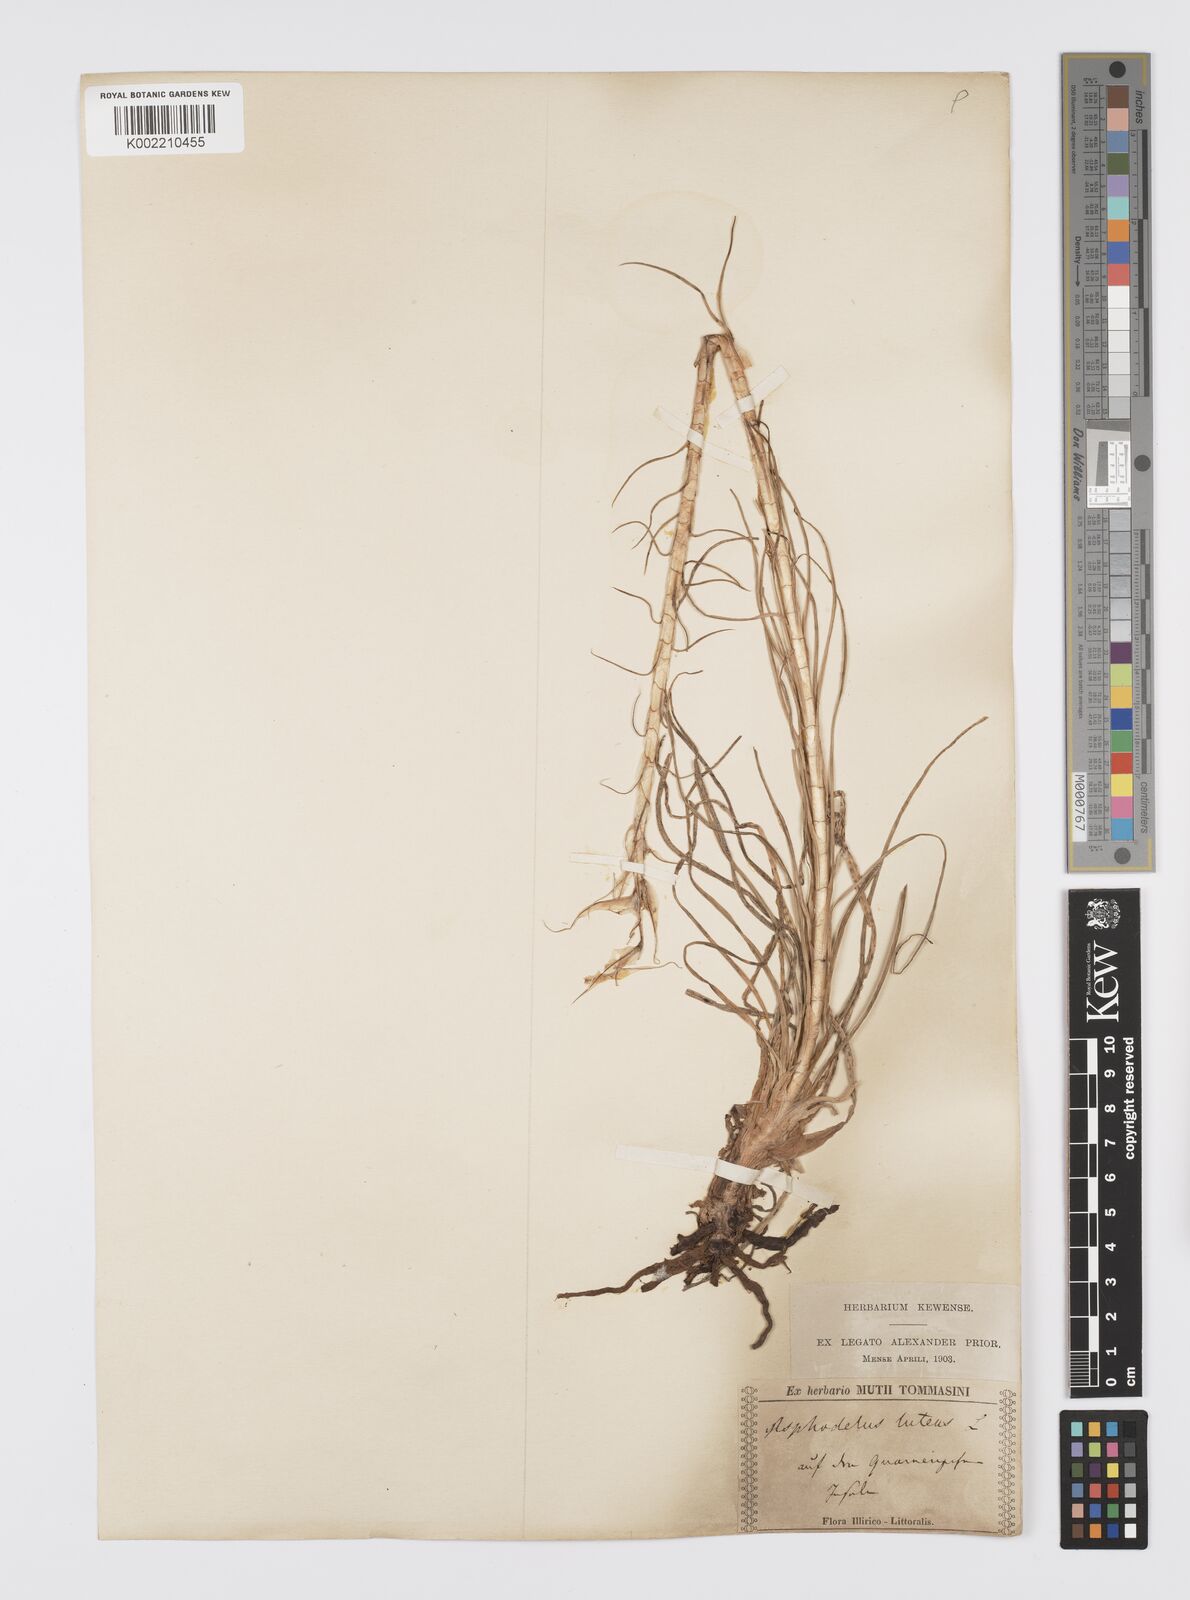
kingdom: Plantae
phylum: Tracheophyta
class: Liliopsida
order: Asparagales
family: Asphodelaceae
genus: Asphodeline
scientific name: Asphodeline lutea
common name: Yellow asphodel
